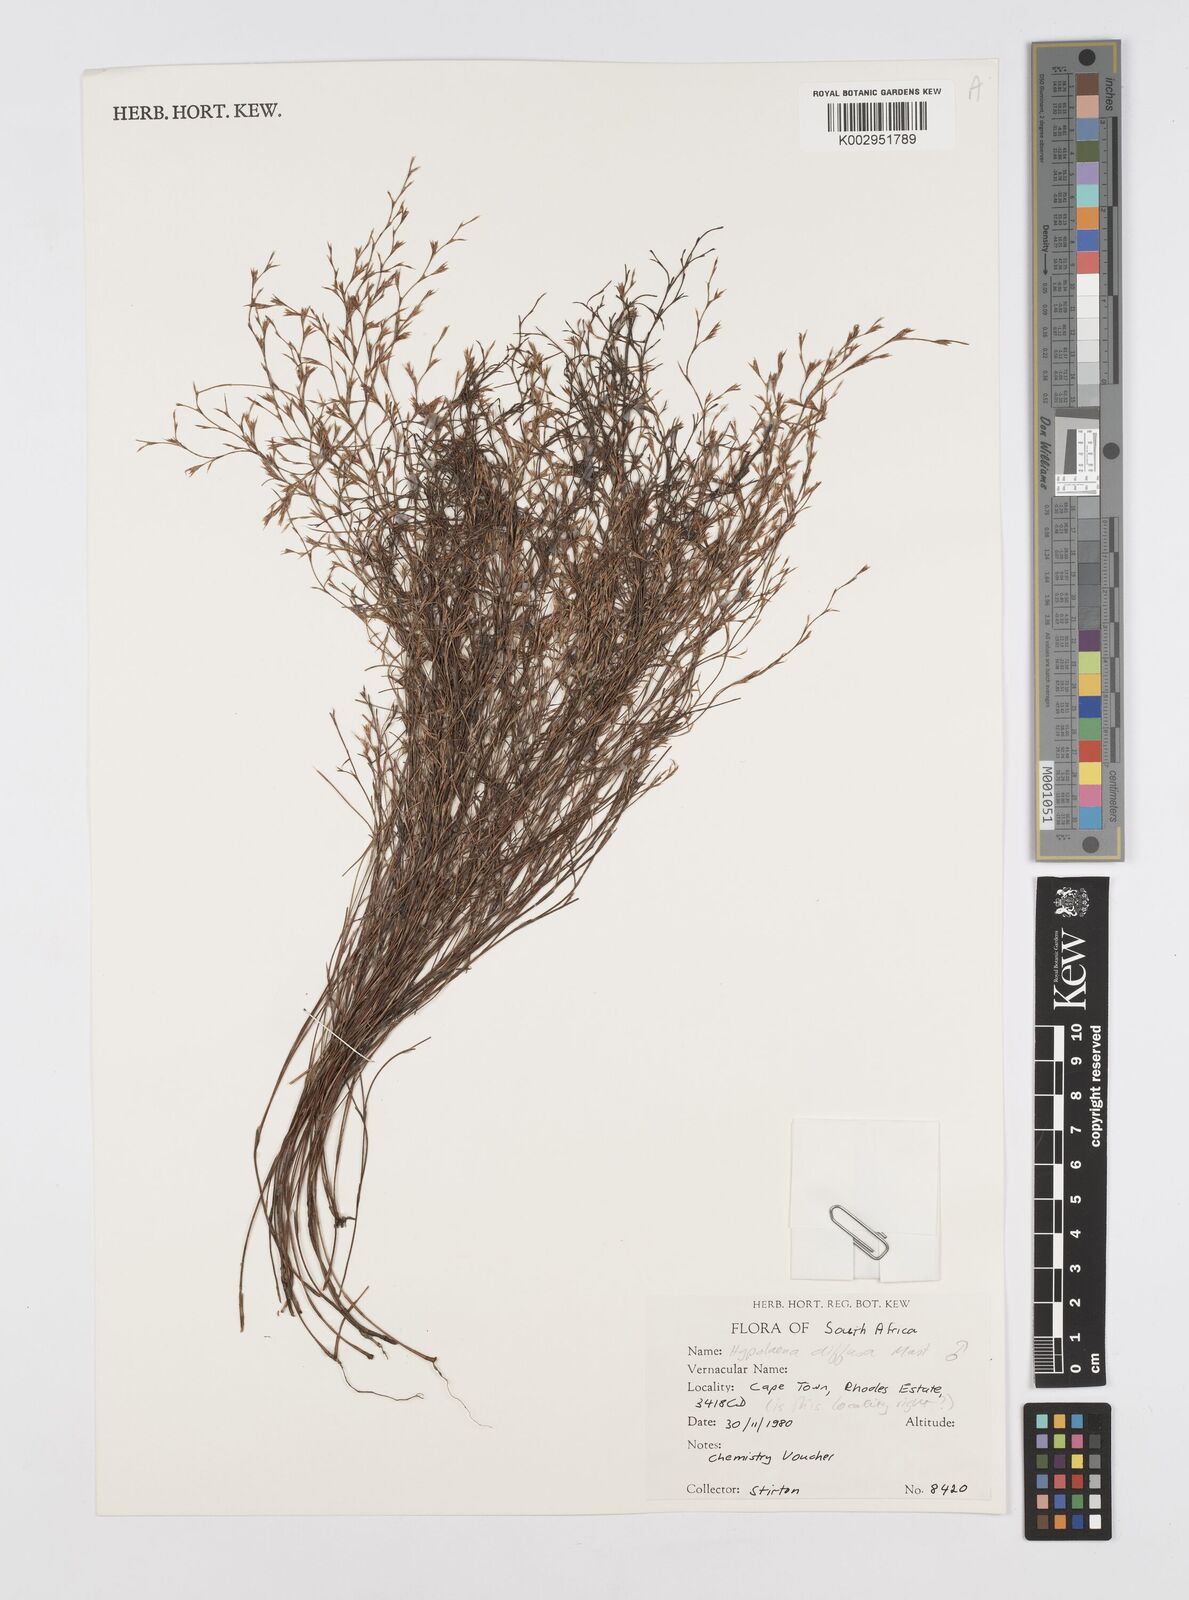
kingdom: Plantae
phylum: Tracheophyta
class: Liliopsida
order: Poales
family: Restionaceae
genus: Restio
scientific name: Restio versatilis
